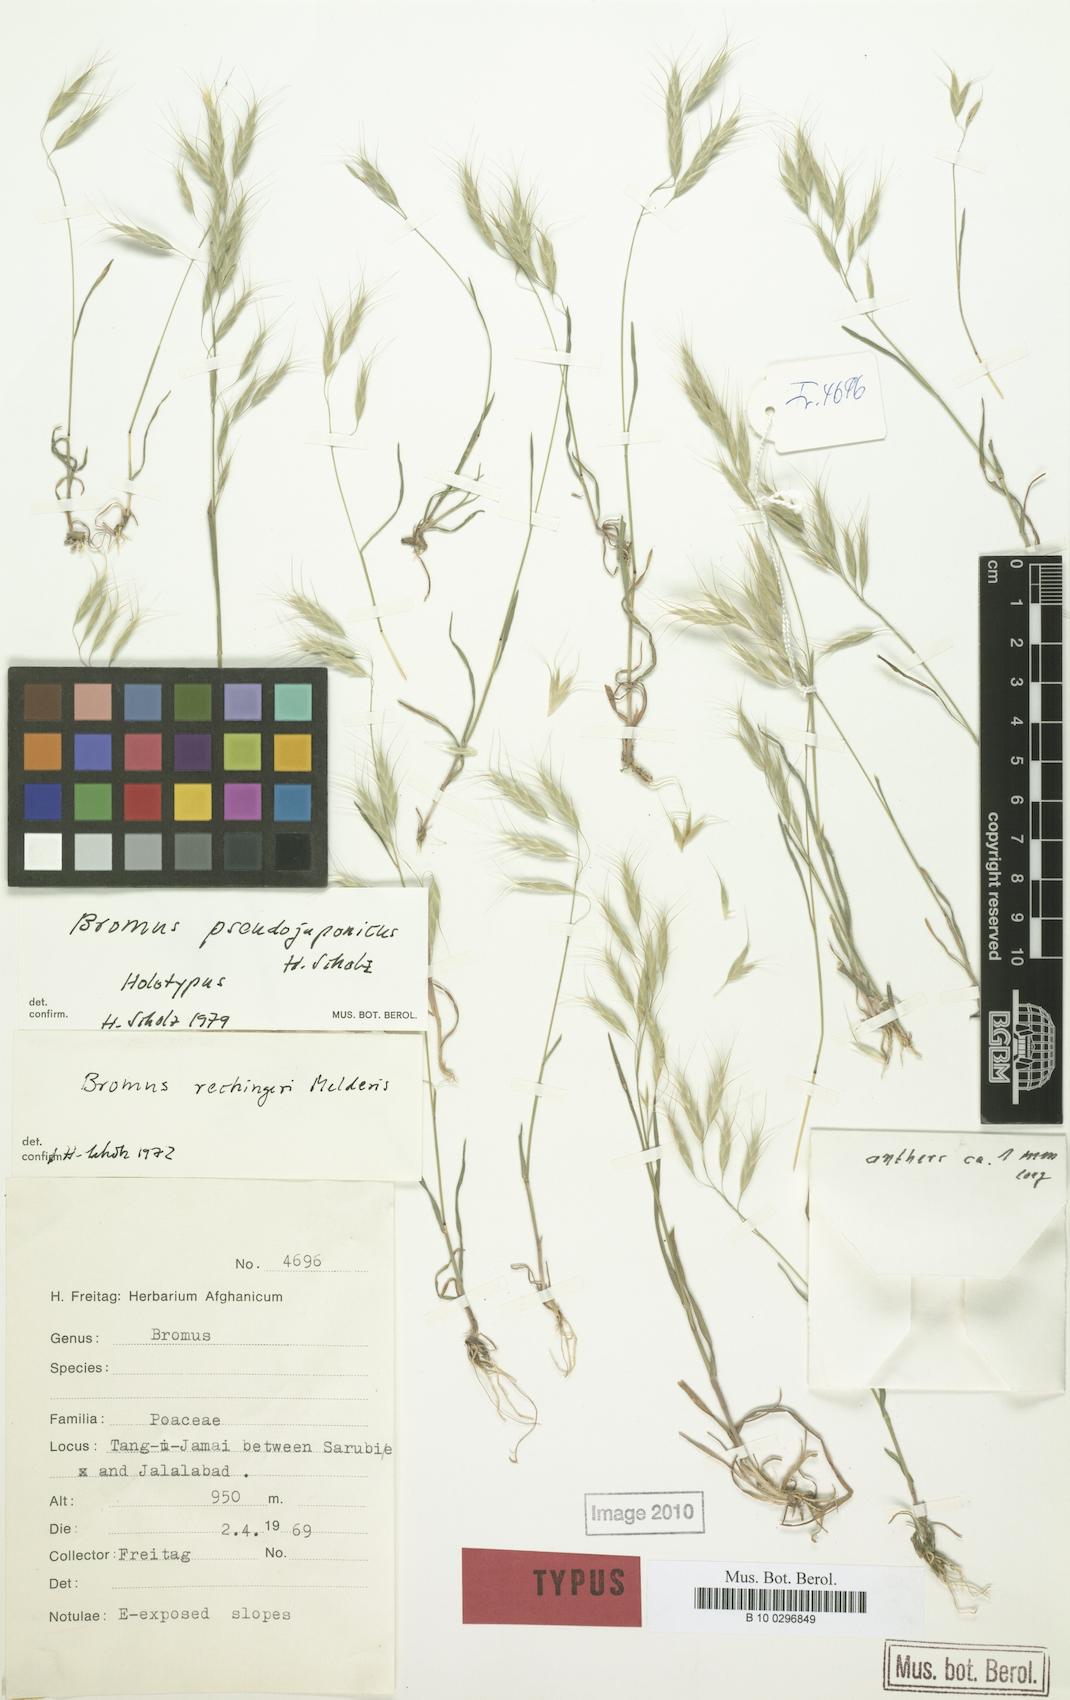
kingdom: Plantae
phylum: Tracheophyta
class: Liliopsida
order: Poales
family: Poaceae
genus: Bromus
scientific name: Bromus pulchellus
